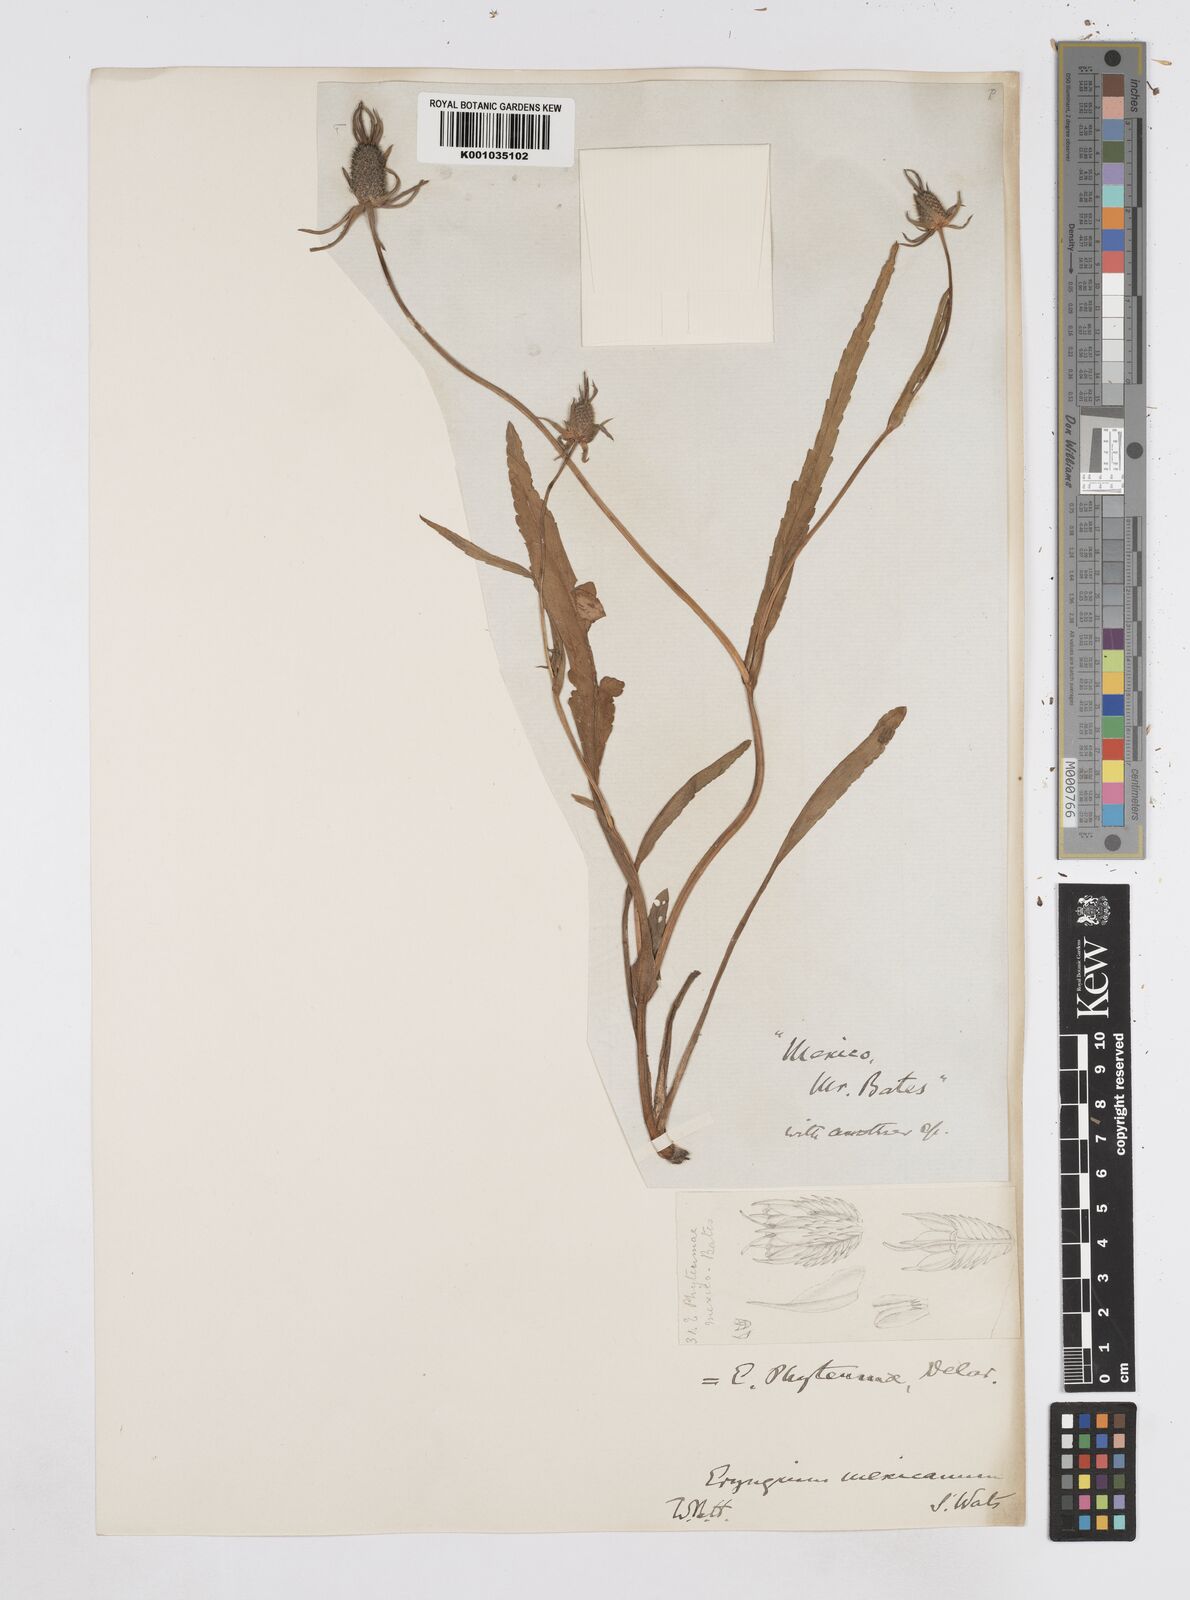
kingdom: Plantae
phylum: Tracheophyta
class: Magnoliopsida
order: Apiales
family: Apiaceae
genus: Eryngium
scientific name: Eryngium phyteumae
